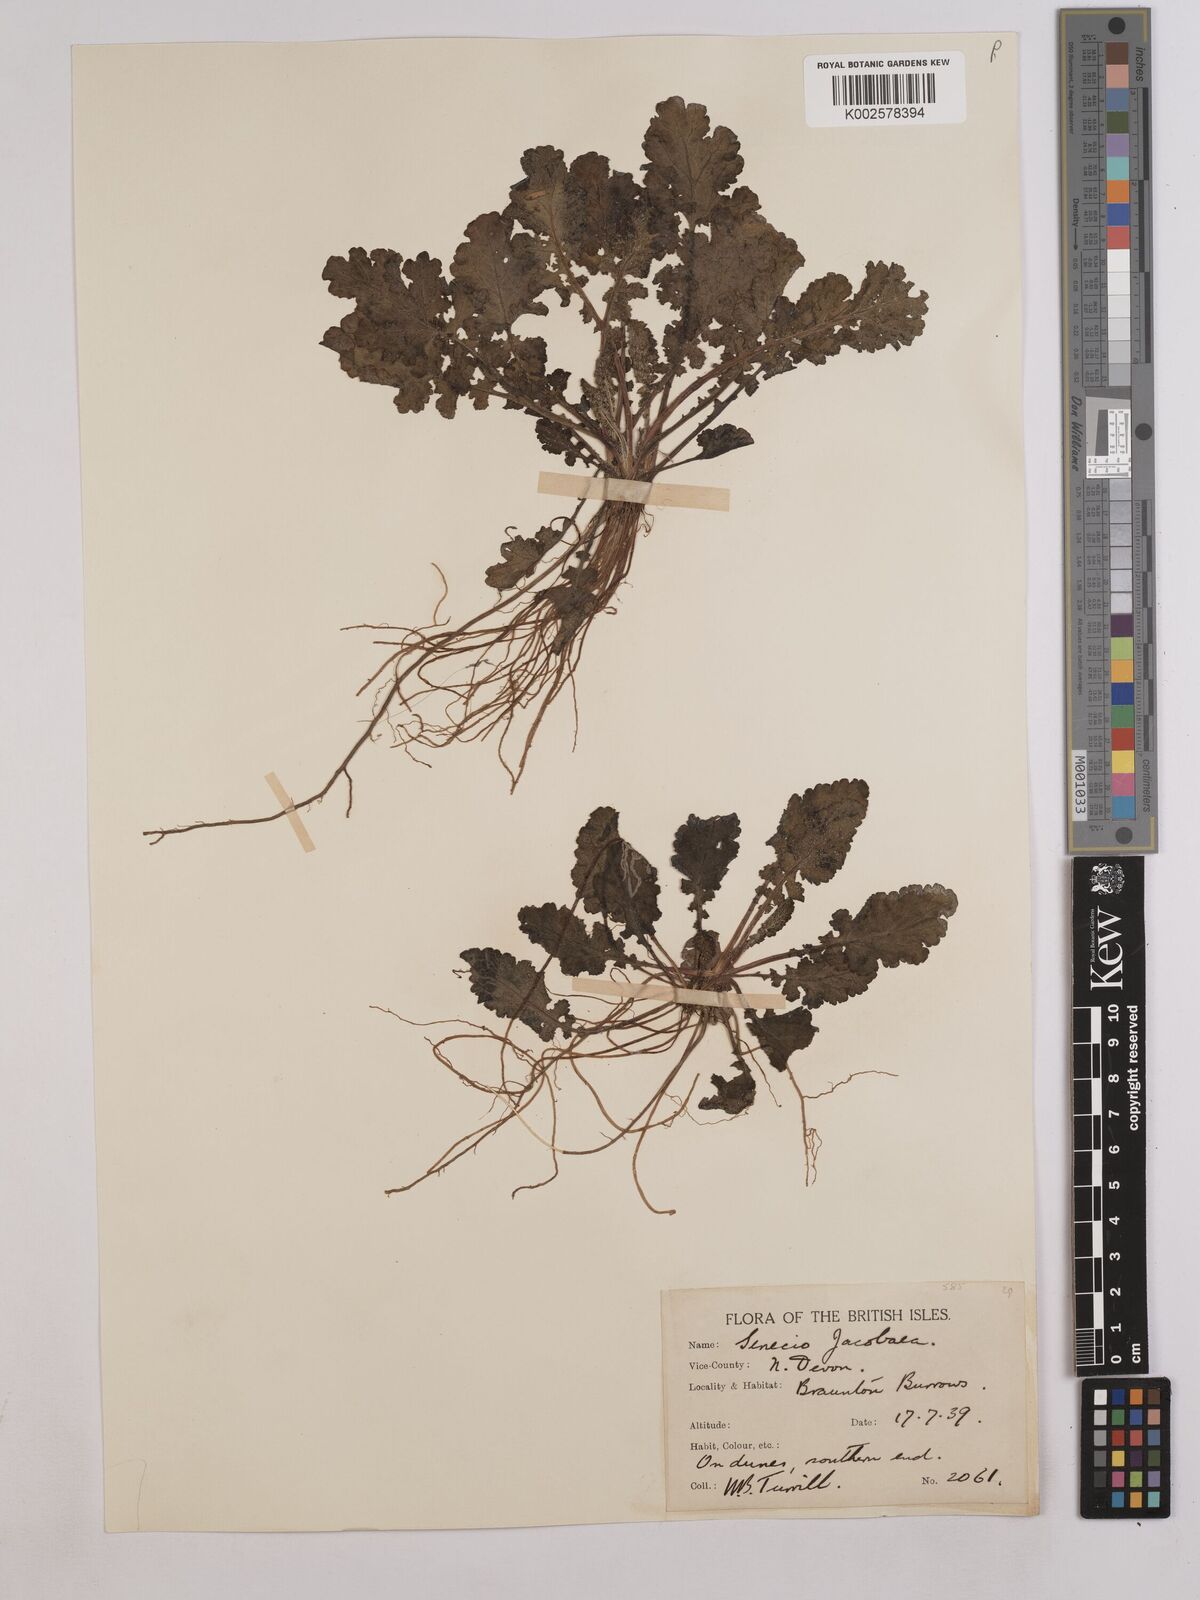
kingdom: Plantae
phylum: Tracheophyta
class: Magnoliopsida
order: Asterales
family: Asteraceae
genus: Jacobaea
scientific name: Jacobaea vulgaris
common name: Stinking willie
